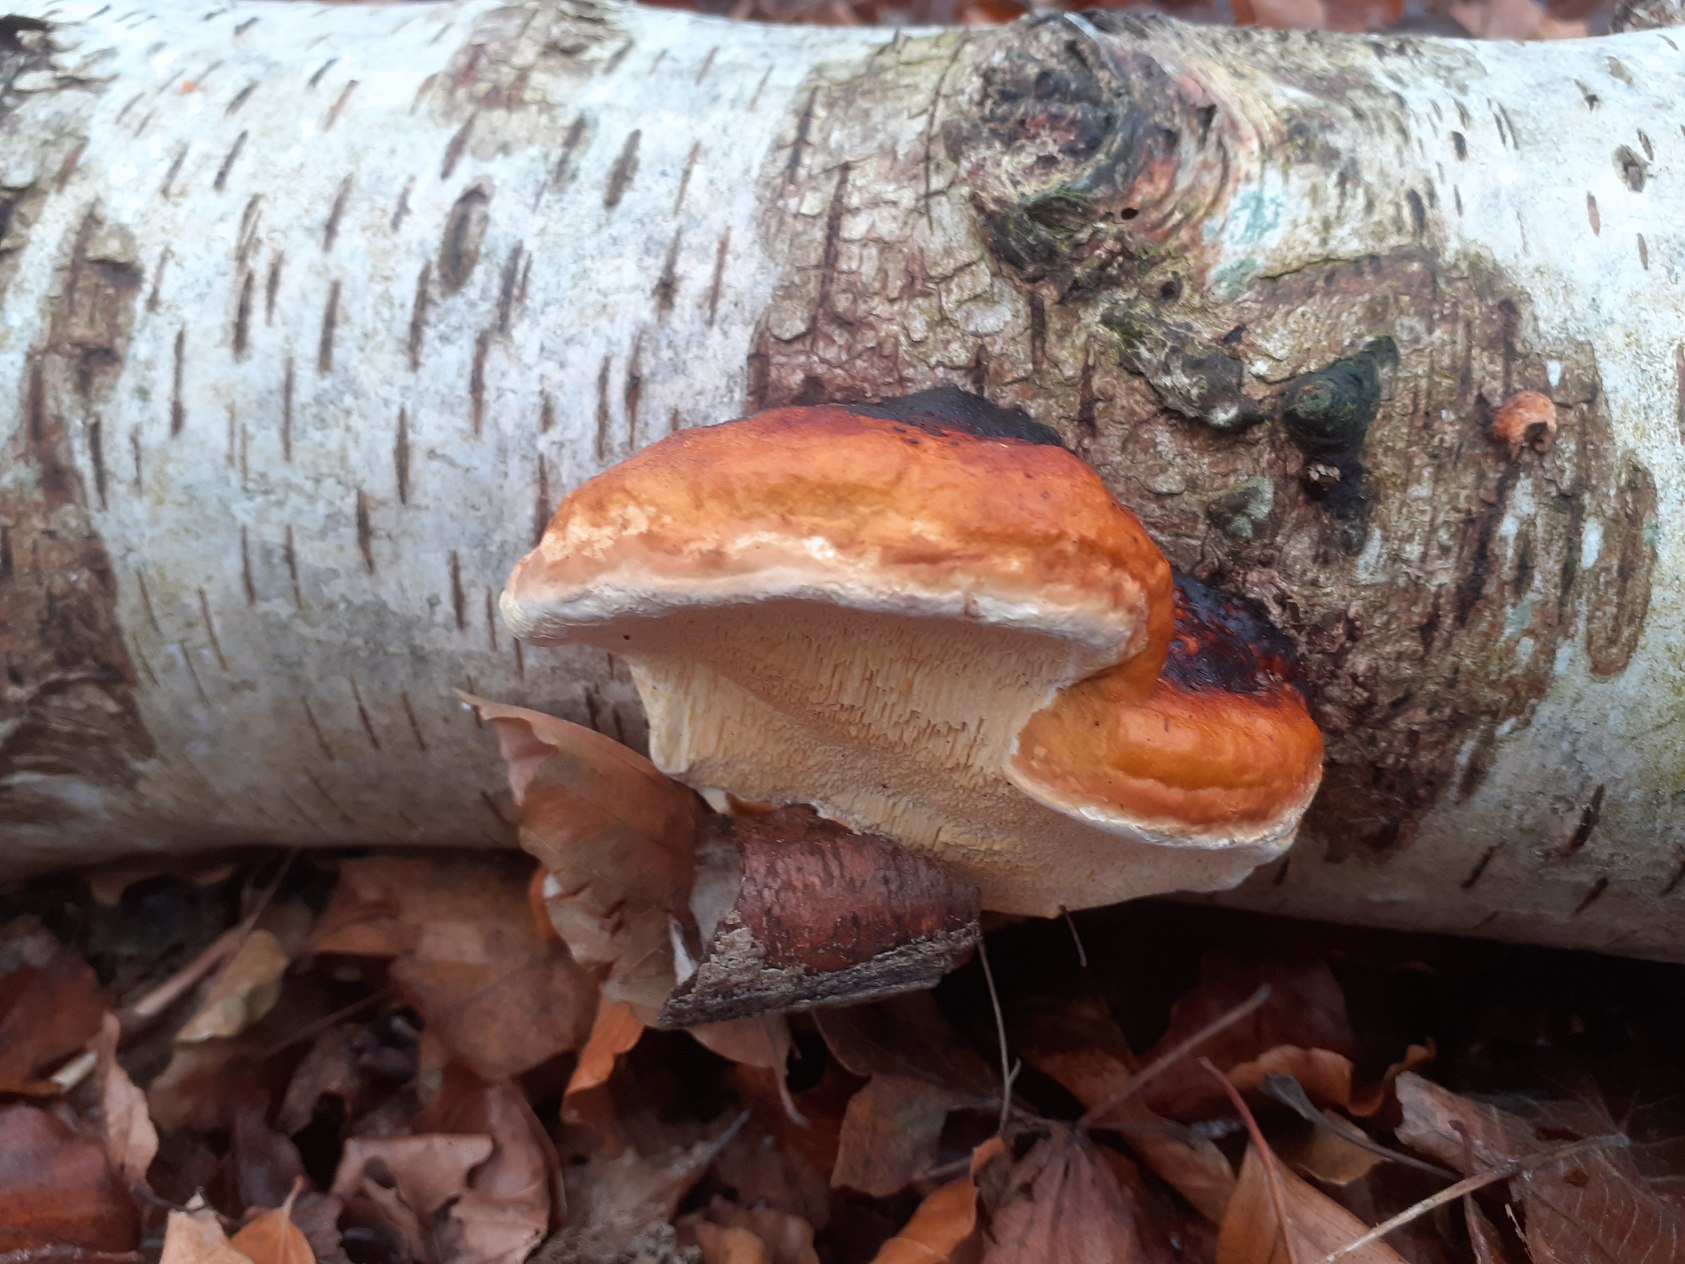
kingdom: Fungi
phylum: Basidiomycota
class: Agaricomycetes
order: Polyporales
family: Fomitopsidaceae
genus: Fomitopsis
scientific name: Fomitopsis pinicola
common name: Randbæltet hovporesvamp
